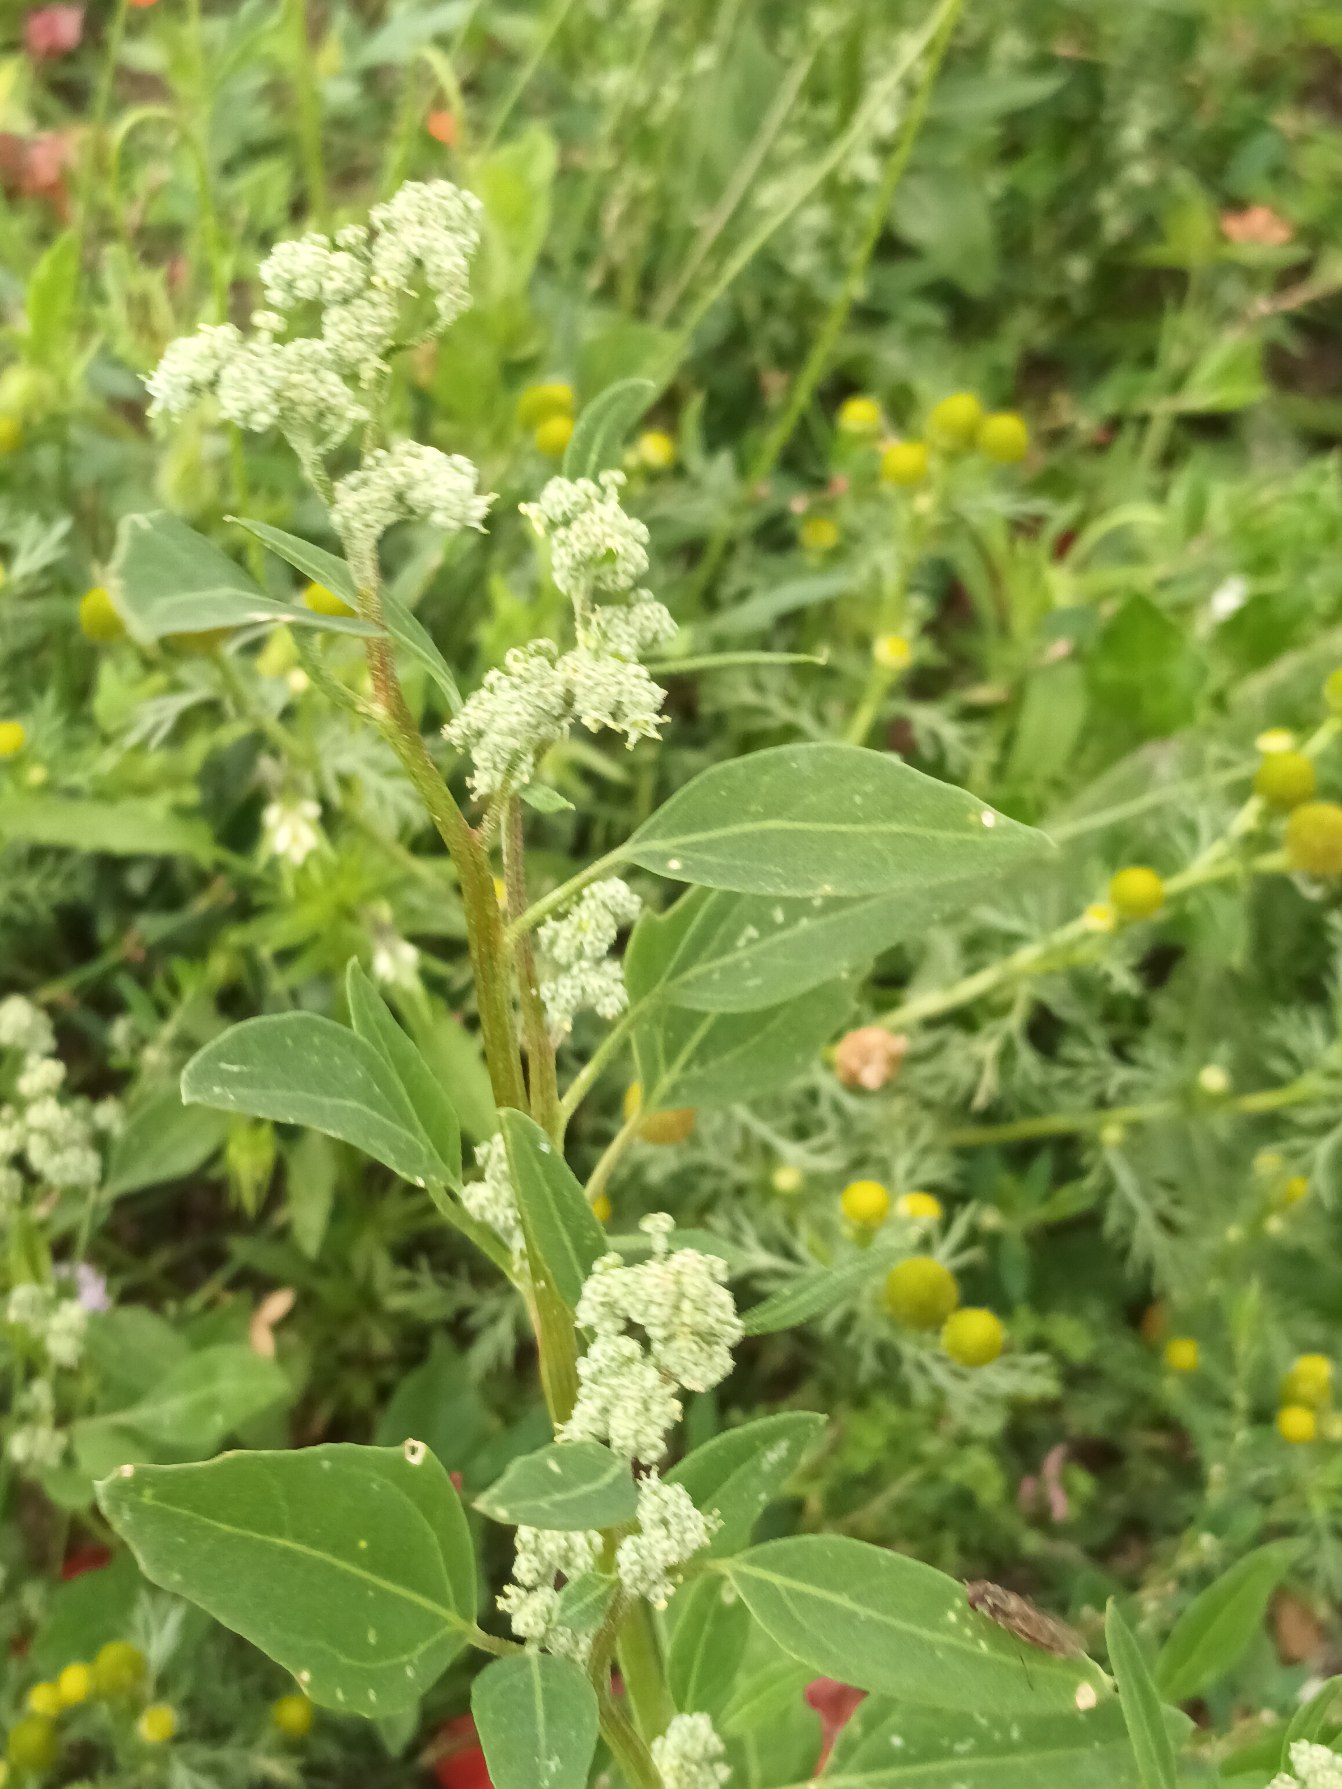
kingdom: Plantae
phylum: Tracheophyta
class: Magnoliopsida
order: Caryophyllales
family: Amaranthaceae
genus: Chenopodium
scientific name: Chenopodium album
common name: Hvidmelet gåsefod
